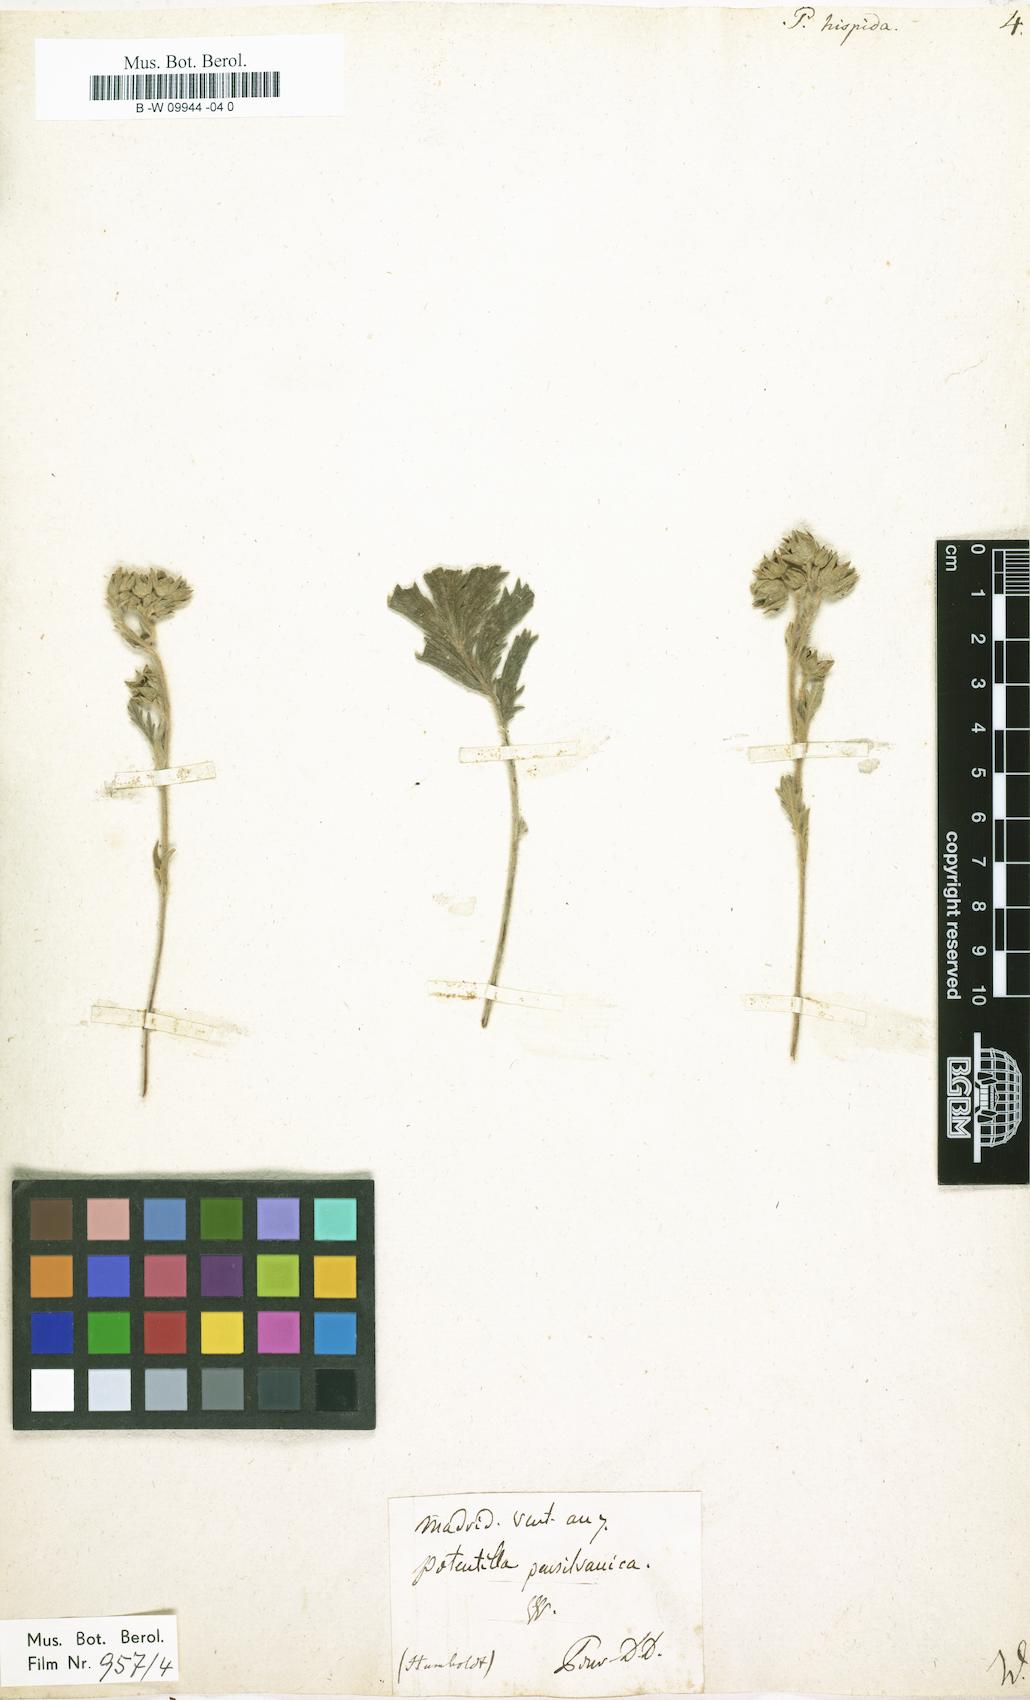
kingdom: Plantae
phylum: Tracheophyta
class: Magnoliopsida
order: Rosales
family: Rosaceae
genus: Potentilla
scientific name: Potentilla
